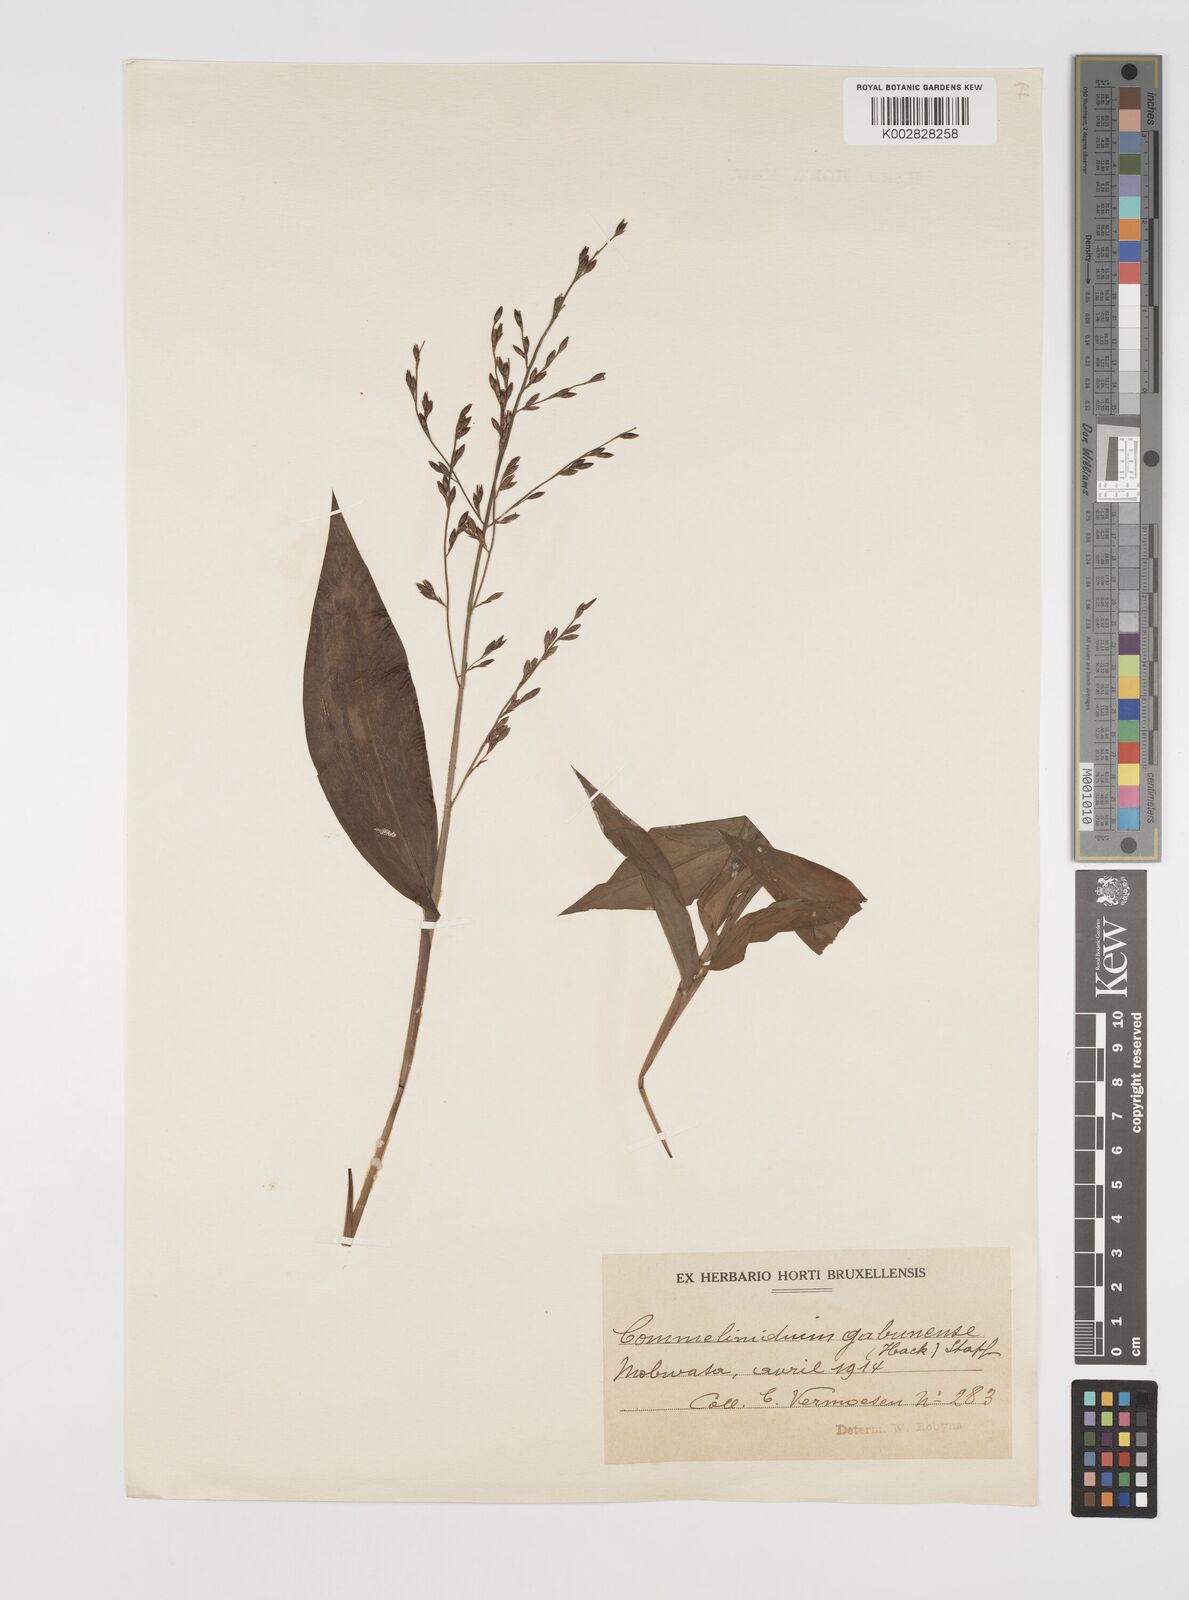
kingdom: Plantae
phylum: Tracheophyta
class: Liliopsida
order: Poales
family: Poaceae
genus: Acroceras
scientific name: Acroceras gabunense
